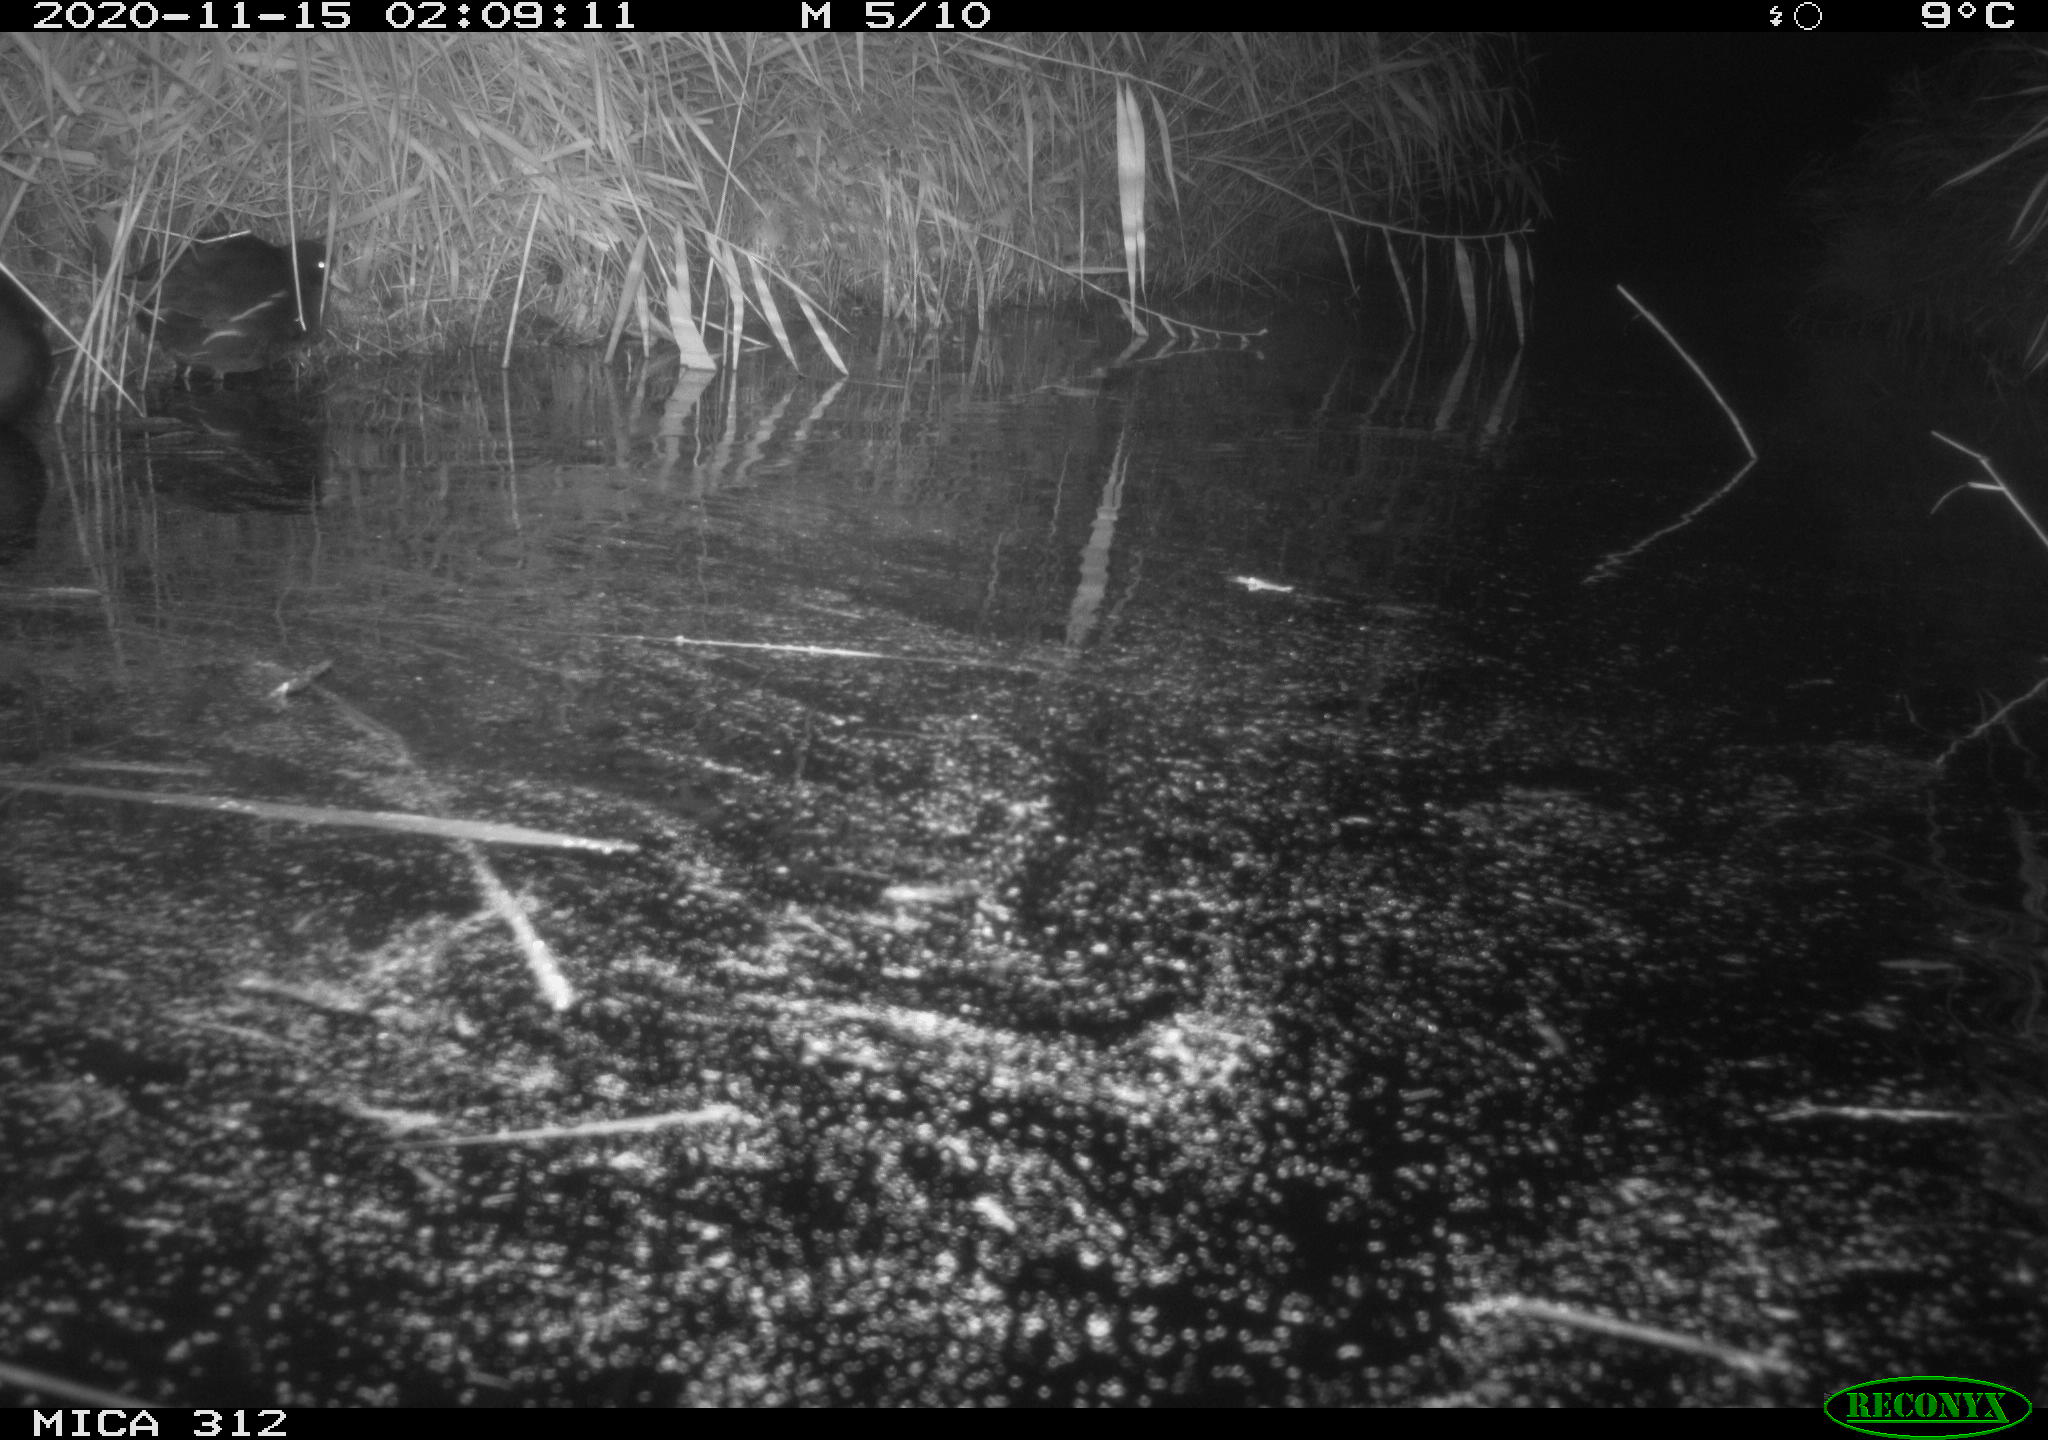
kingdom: Animalia
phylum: Chordata
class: Mammalia
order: Rodentia
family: Cricetidae
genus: Ondatra
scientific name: Ondatra zibethicus
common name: Muskrat
